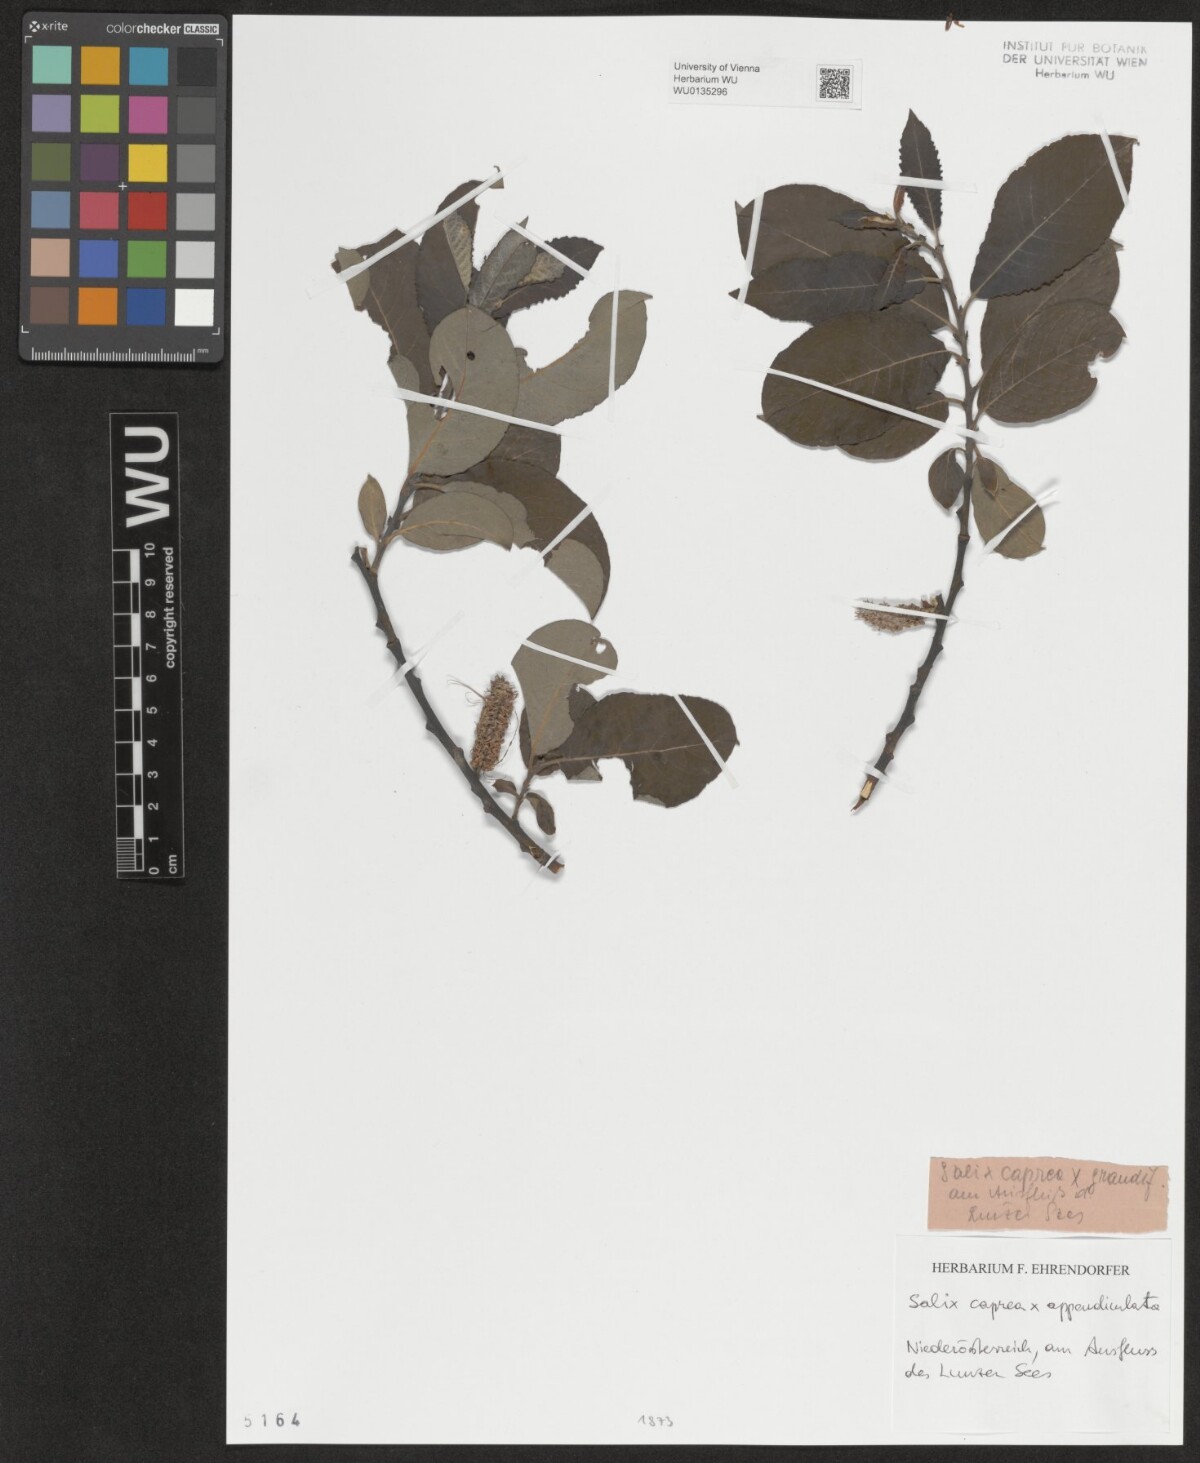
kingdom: Plantae
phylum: Tracheophyta
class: Magnoliopsida
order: Malpighiales
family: Salicaceae
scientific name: Salicaceae
